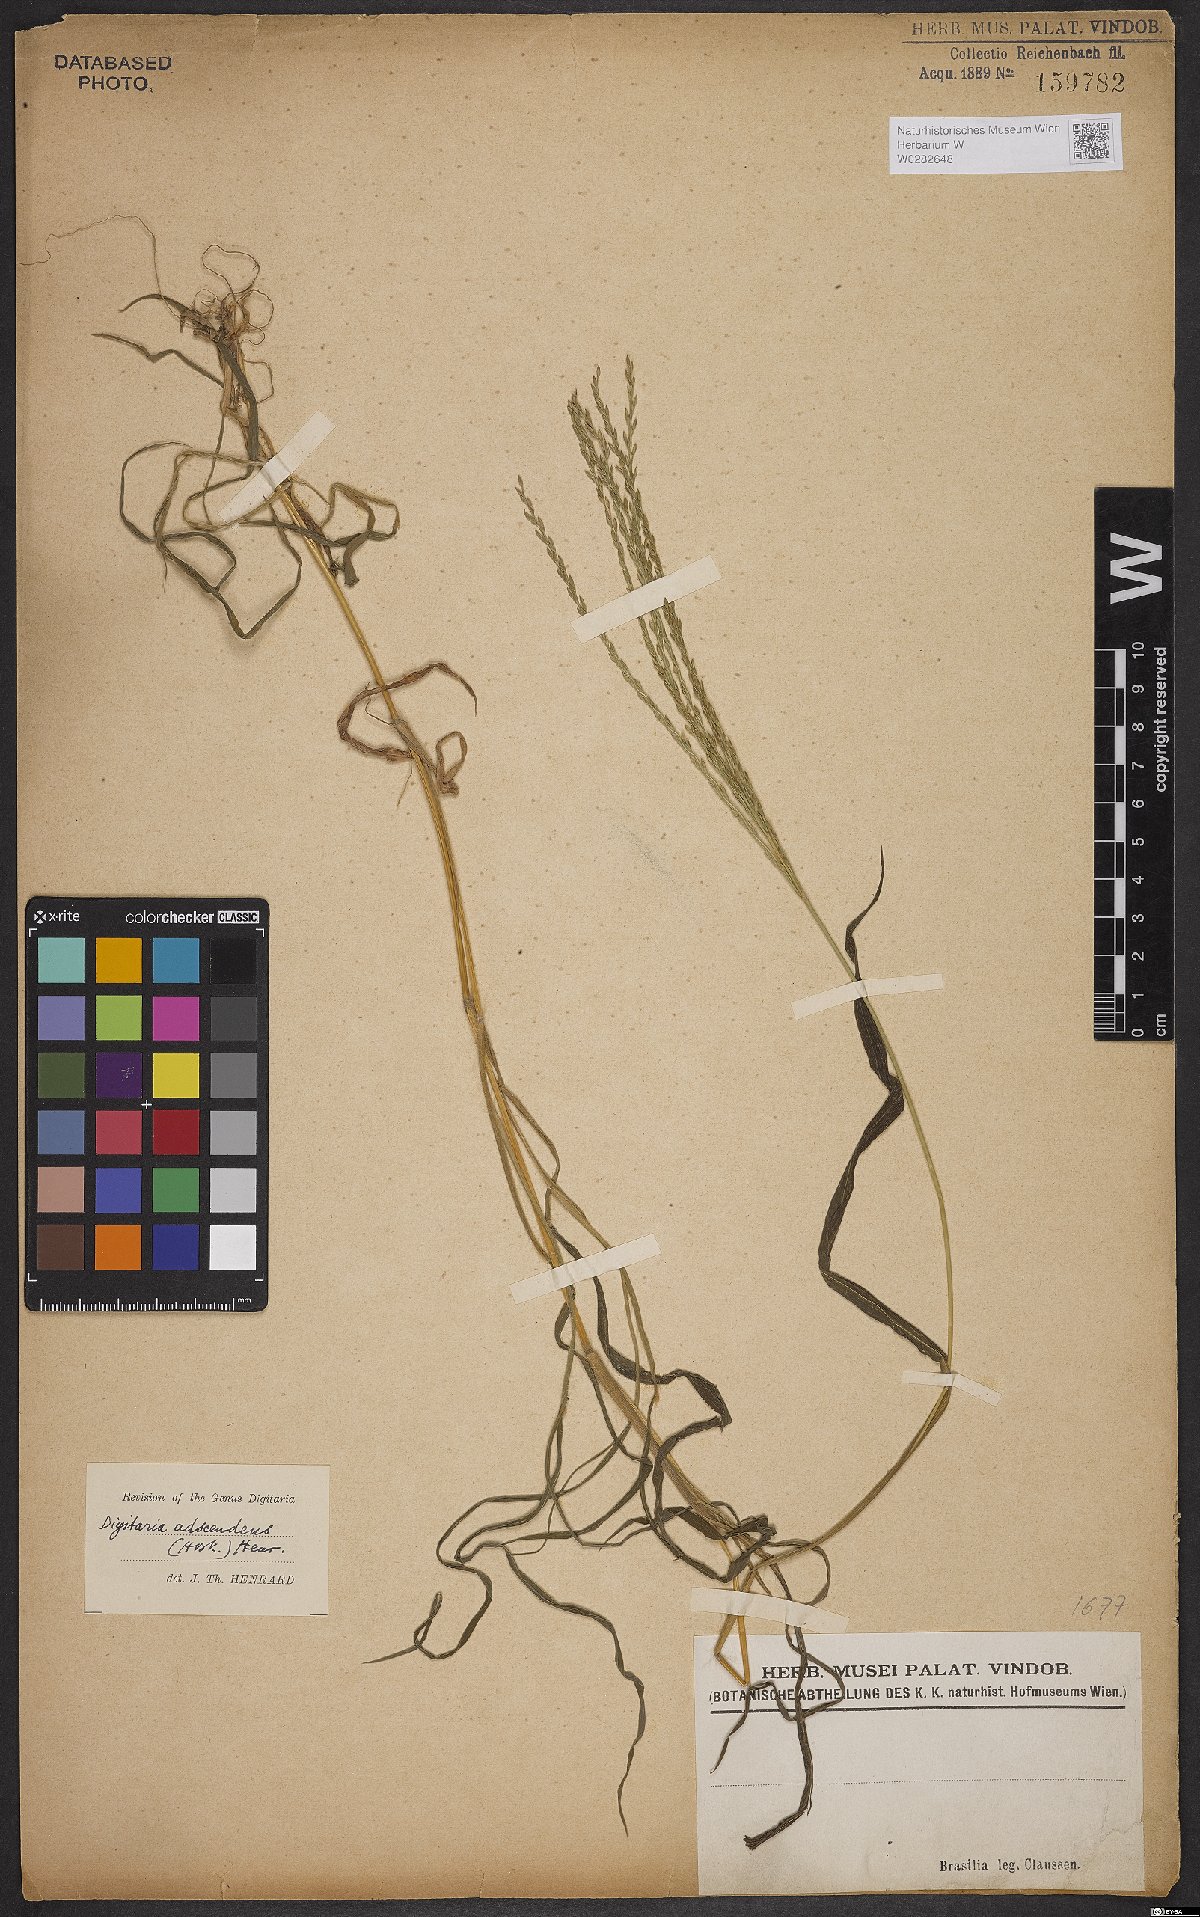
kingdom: Plantae
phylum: Tracheophyta
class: Liliopsida
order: Poales
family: Poaceae
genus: Digitaria
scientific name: Digitaria ciliaris
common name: Tropical finger-grass
